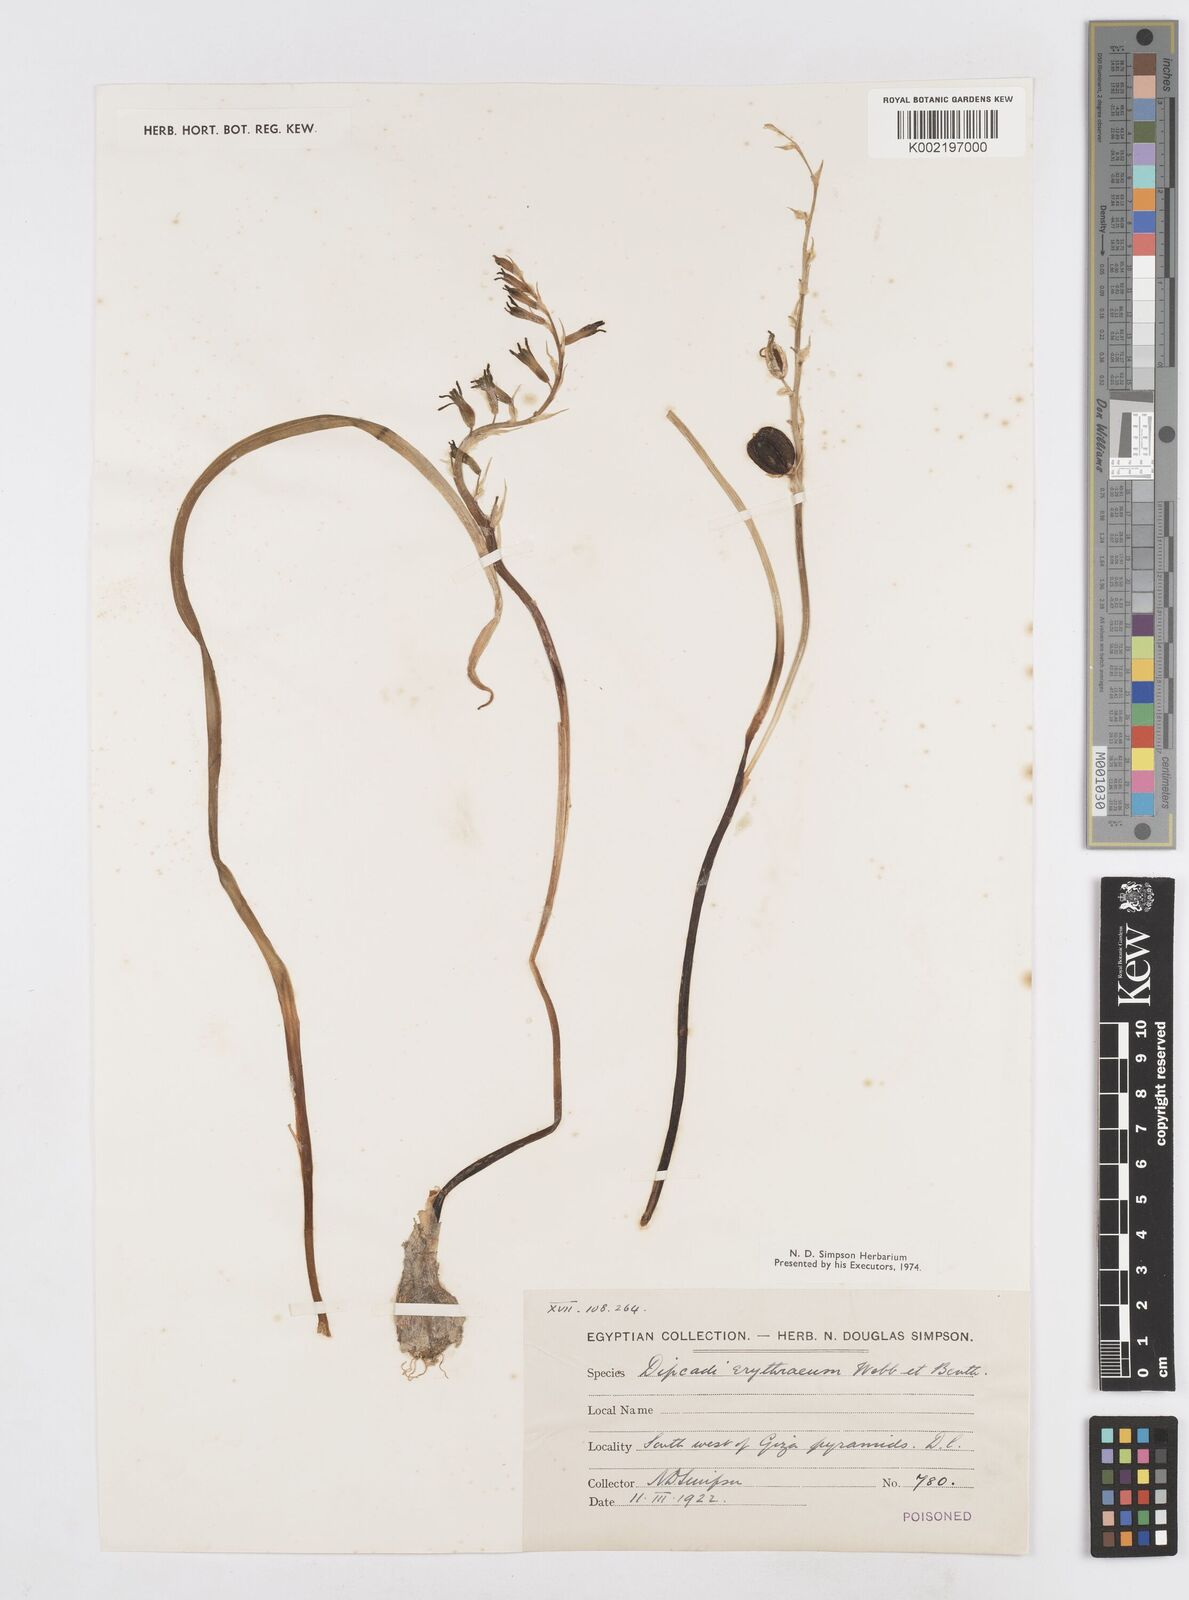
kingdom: Plantae
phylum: Tracheophyta
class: Liliopsida
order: Asparagales
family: Asparagaceae
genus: Dipcadi
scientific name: Dipcadi erythraeum
